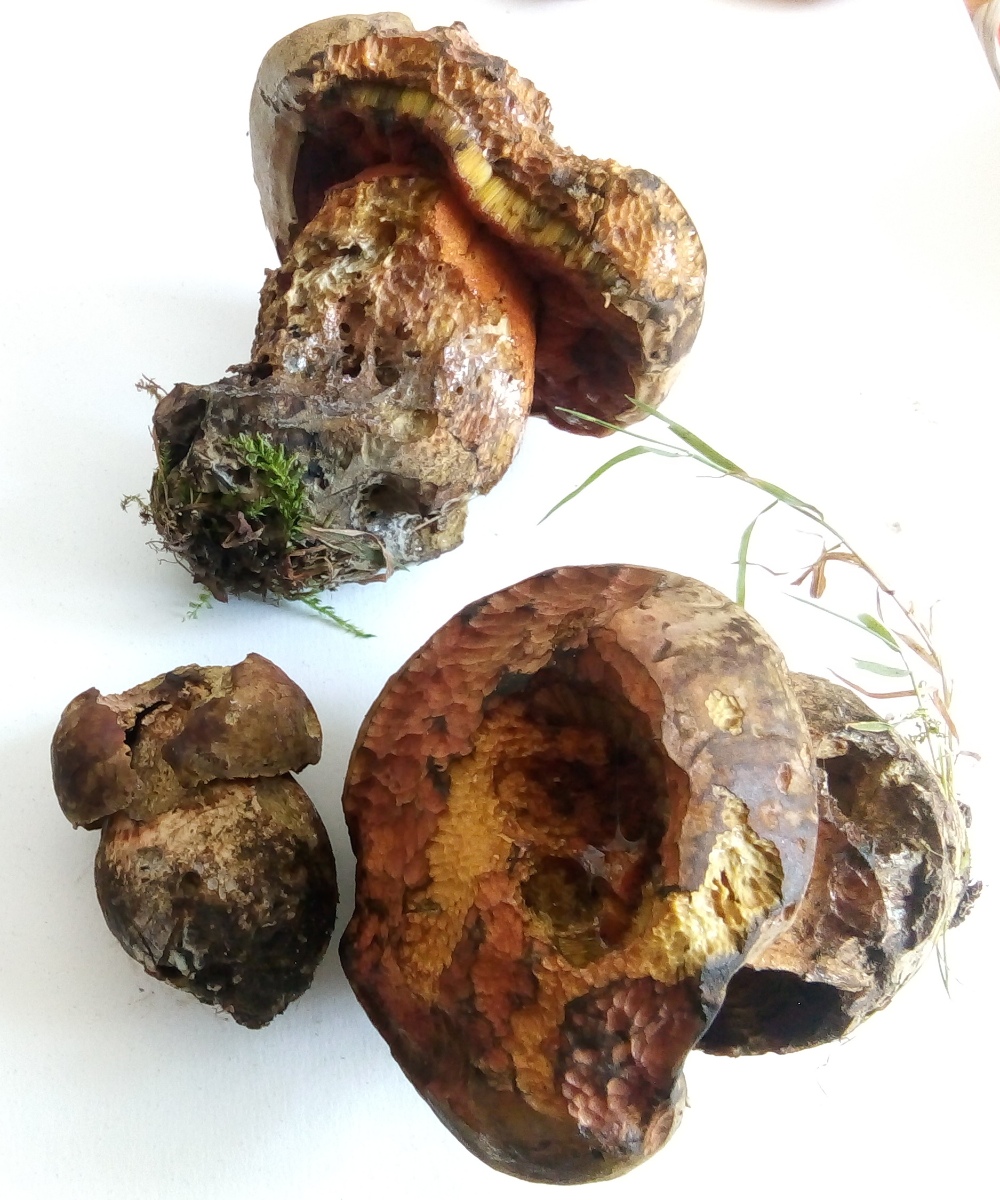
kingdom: Fungi
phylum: Basidiomycota
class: Agaricomycetes
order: Boletales
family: Boletaceae
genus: Suillellus
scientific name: Suillellus luridus
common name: netstokket indigorørhat
